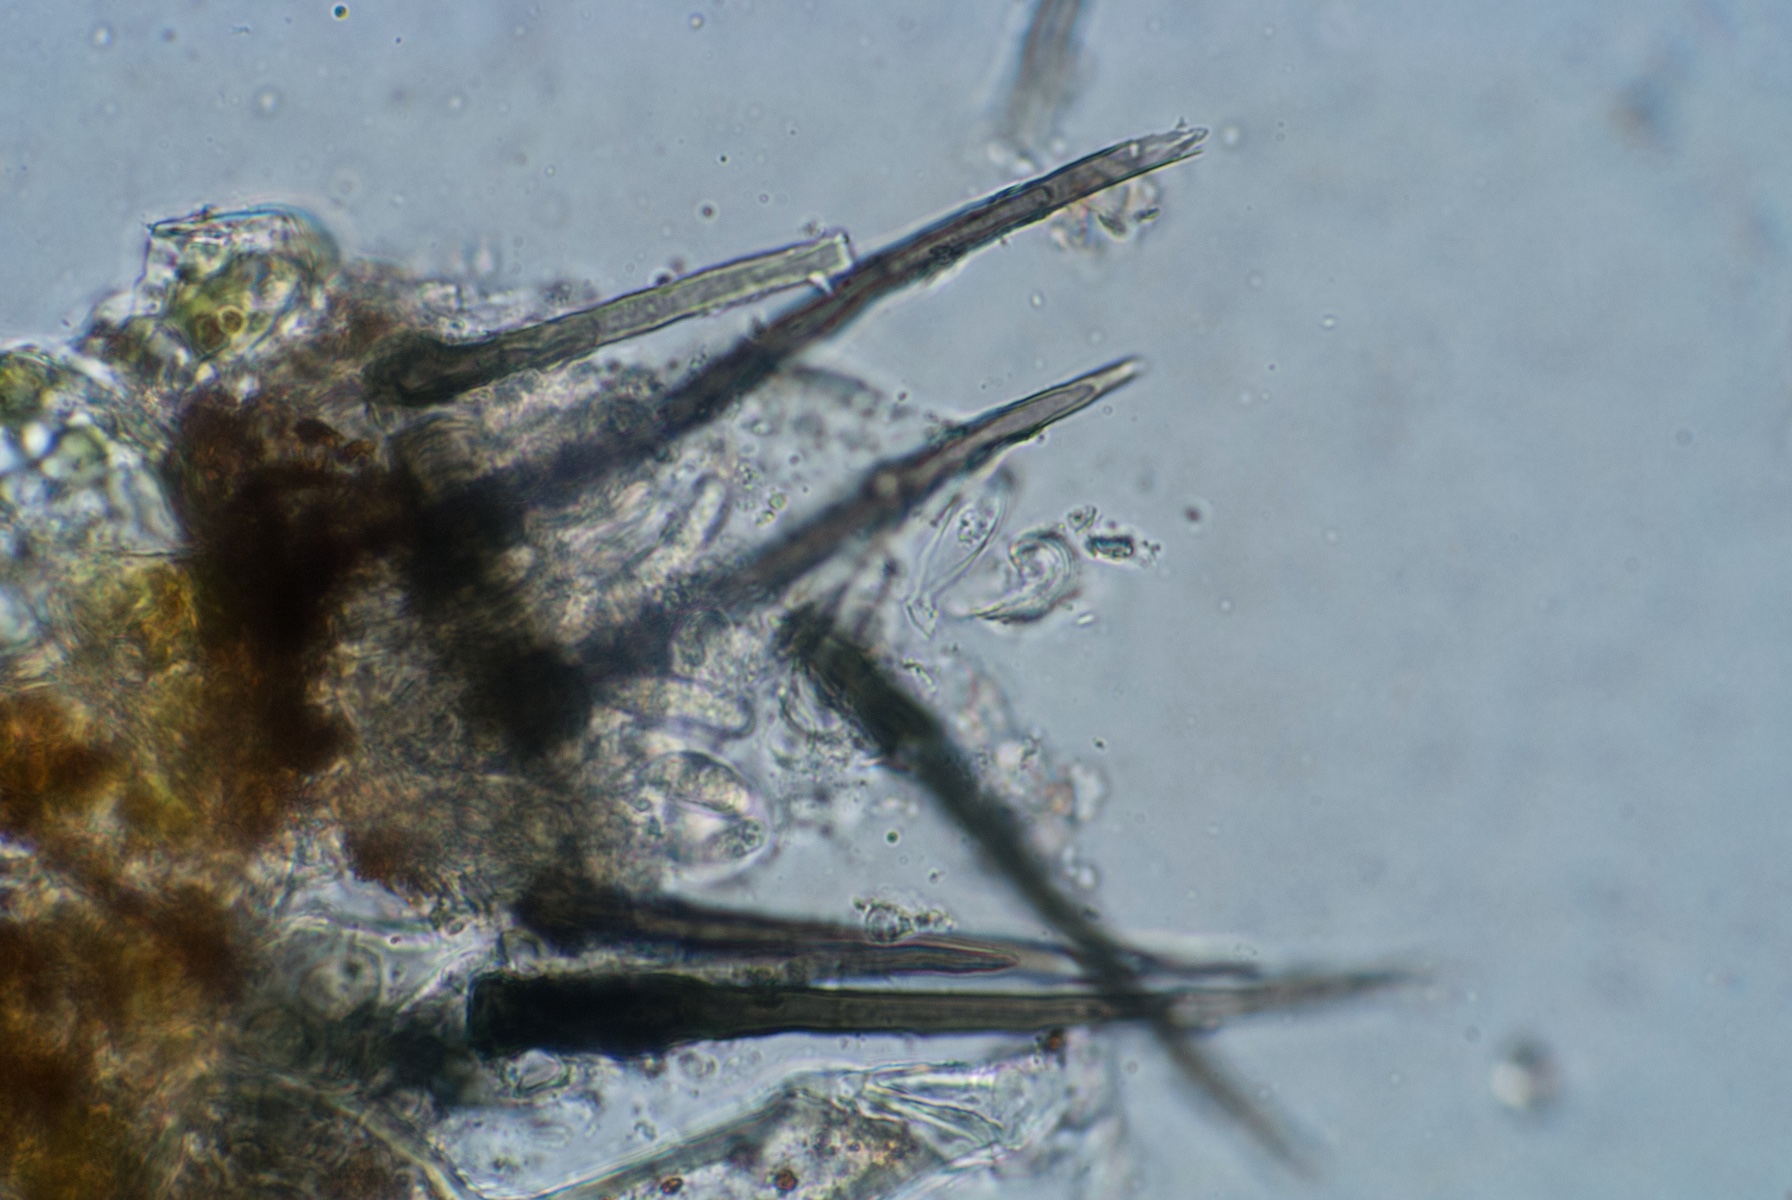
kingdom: Fungi
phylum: Ascomycota
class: Sordariomycetes
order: Glomerellales
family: Glomerellaceae
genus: Colletotrichum
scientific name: Colletotrichum holci
